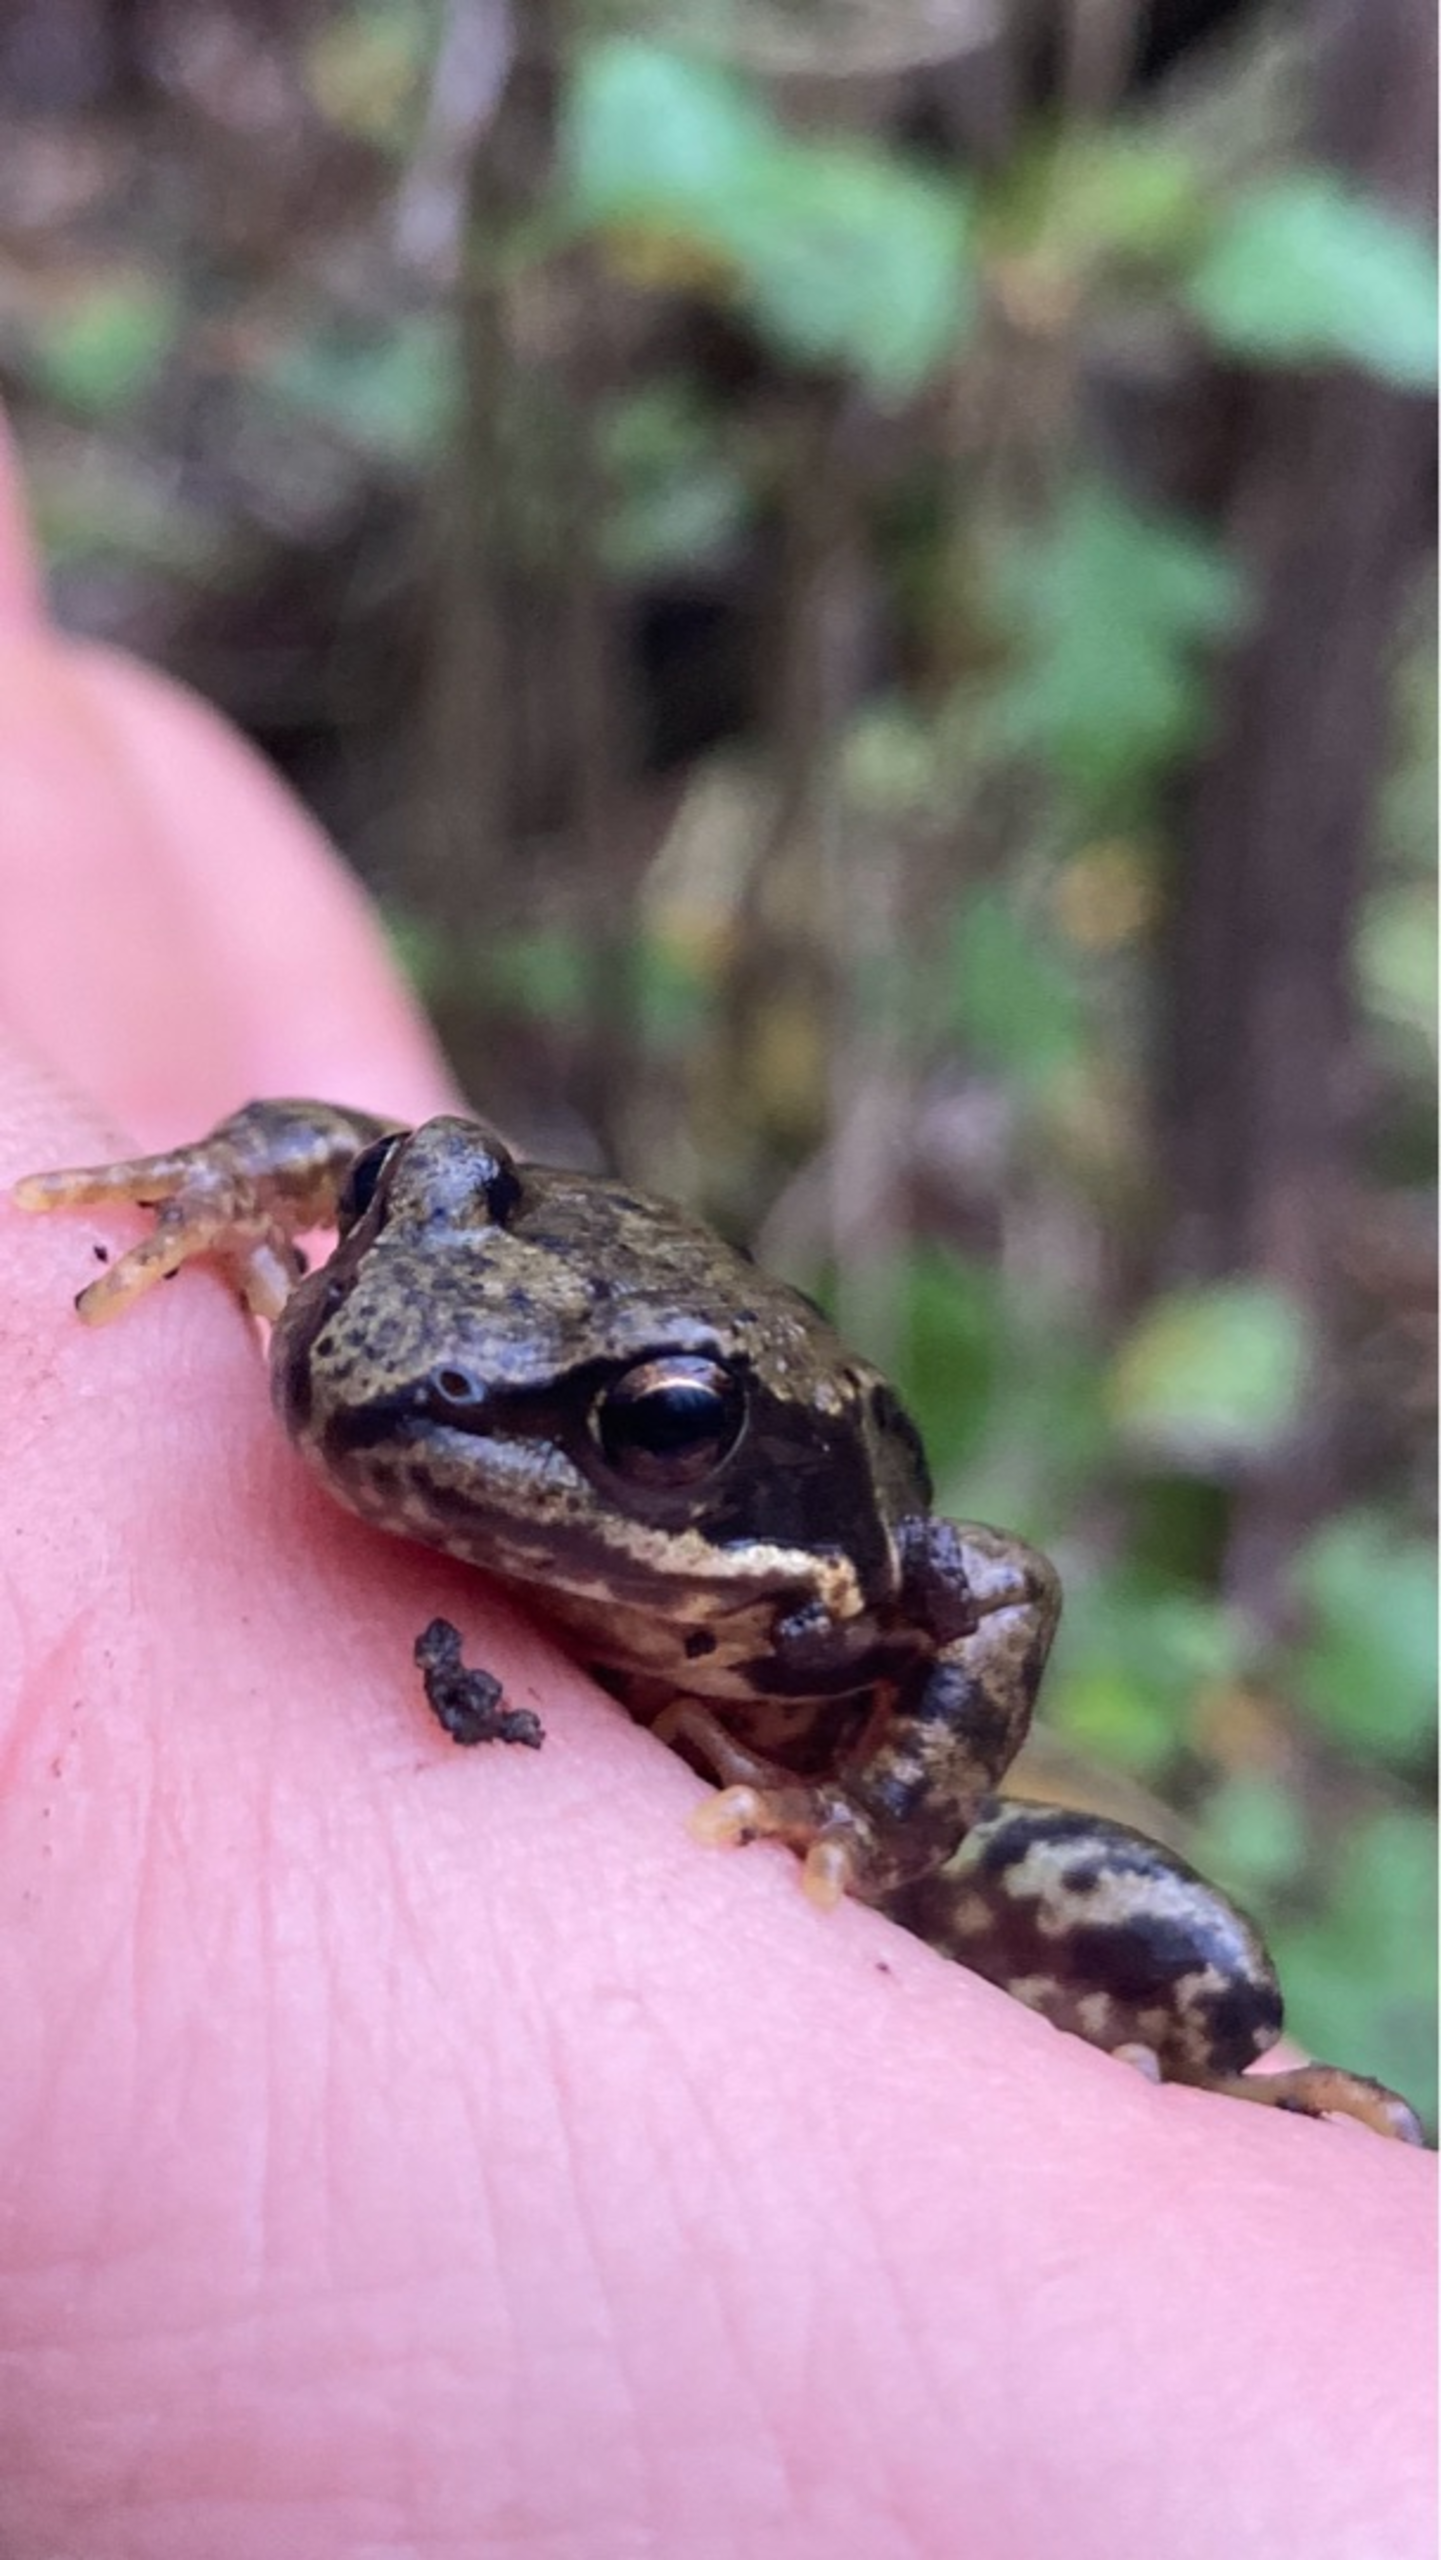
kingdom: Animalia
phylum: Chordata
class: Amphibia
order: Anura
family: Ranidae
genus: Rana
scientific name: Rana temporaria
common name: Butsnudet frø
